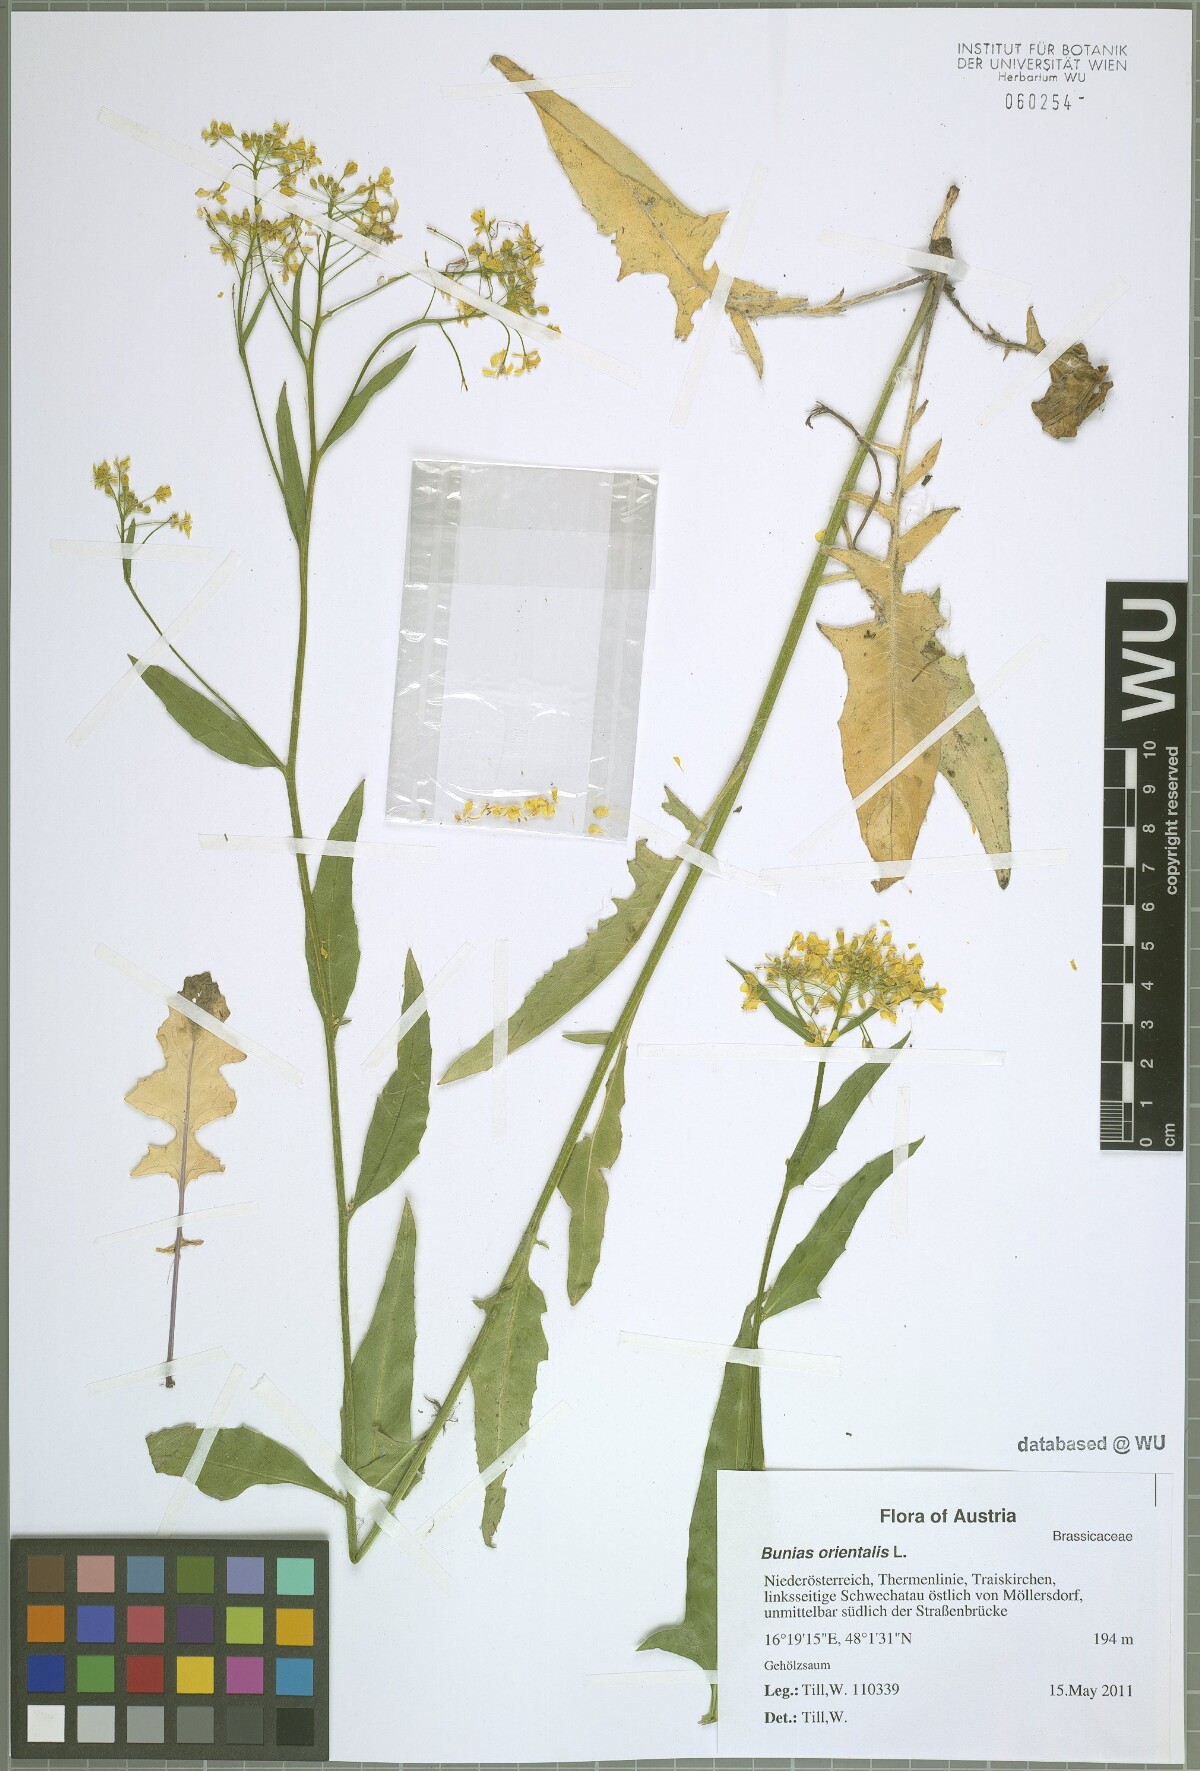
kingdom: Plantae
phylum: Tracheophyta
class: Magnoliopsida
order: Brassicales
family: Brassicaceae
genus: Bunias
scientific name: Bunias orientalis
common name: Warty-cabbage
